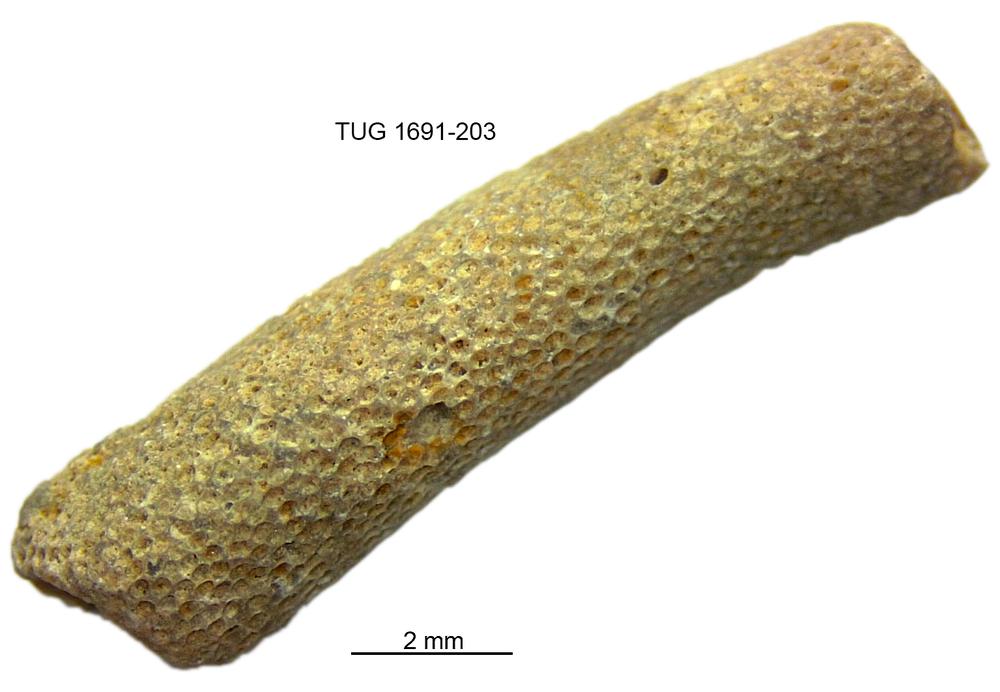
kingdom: Animalia
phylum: Bryozoa
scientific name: Bryozoa
